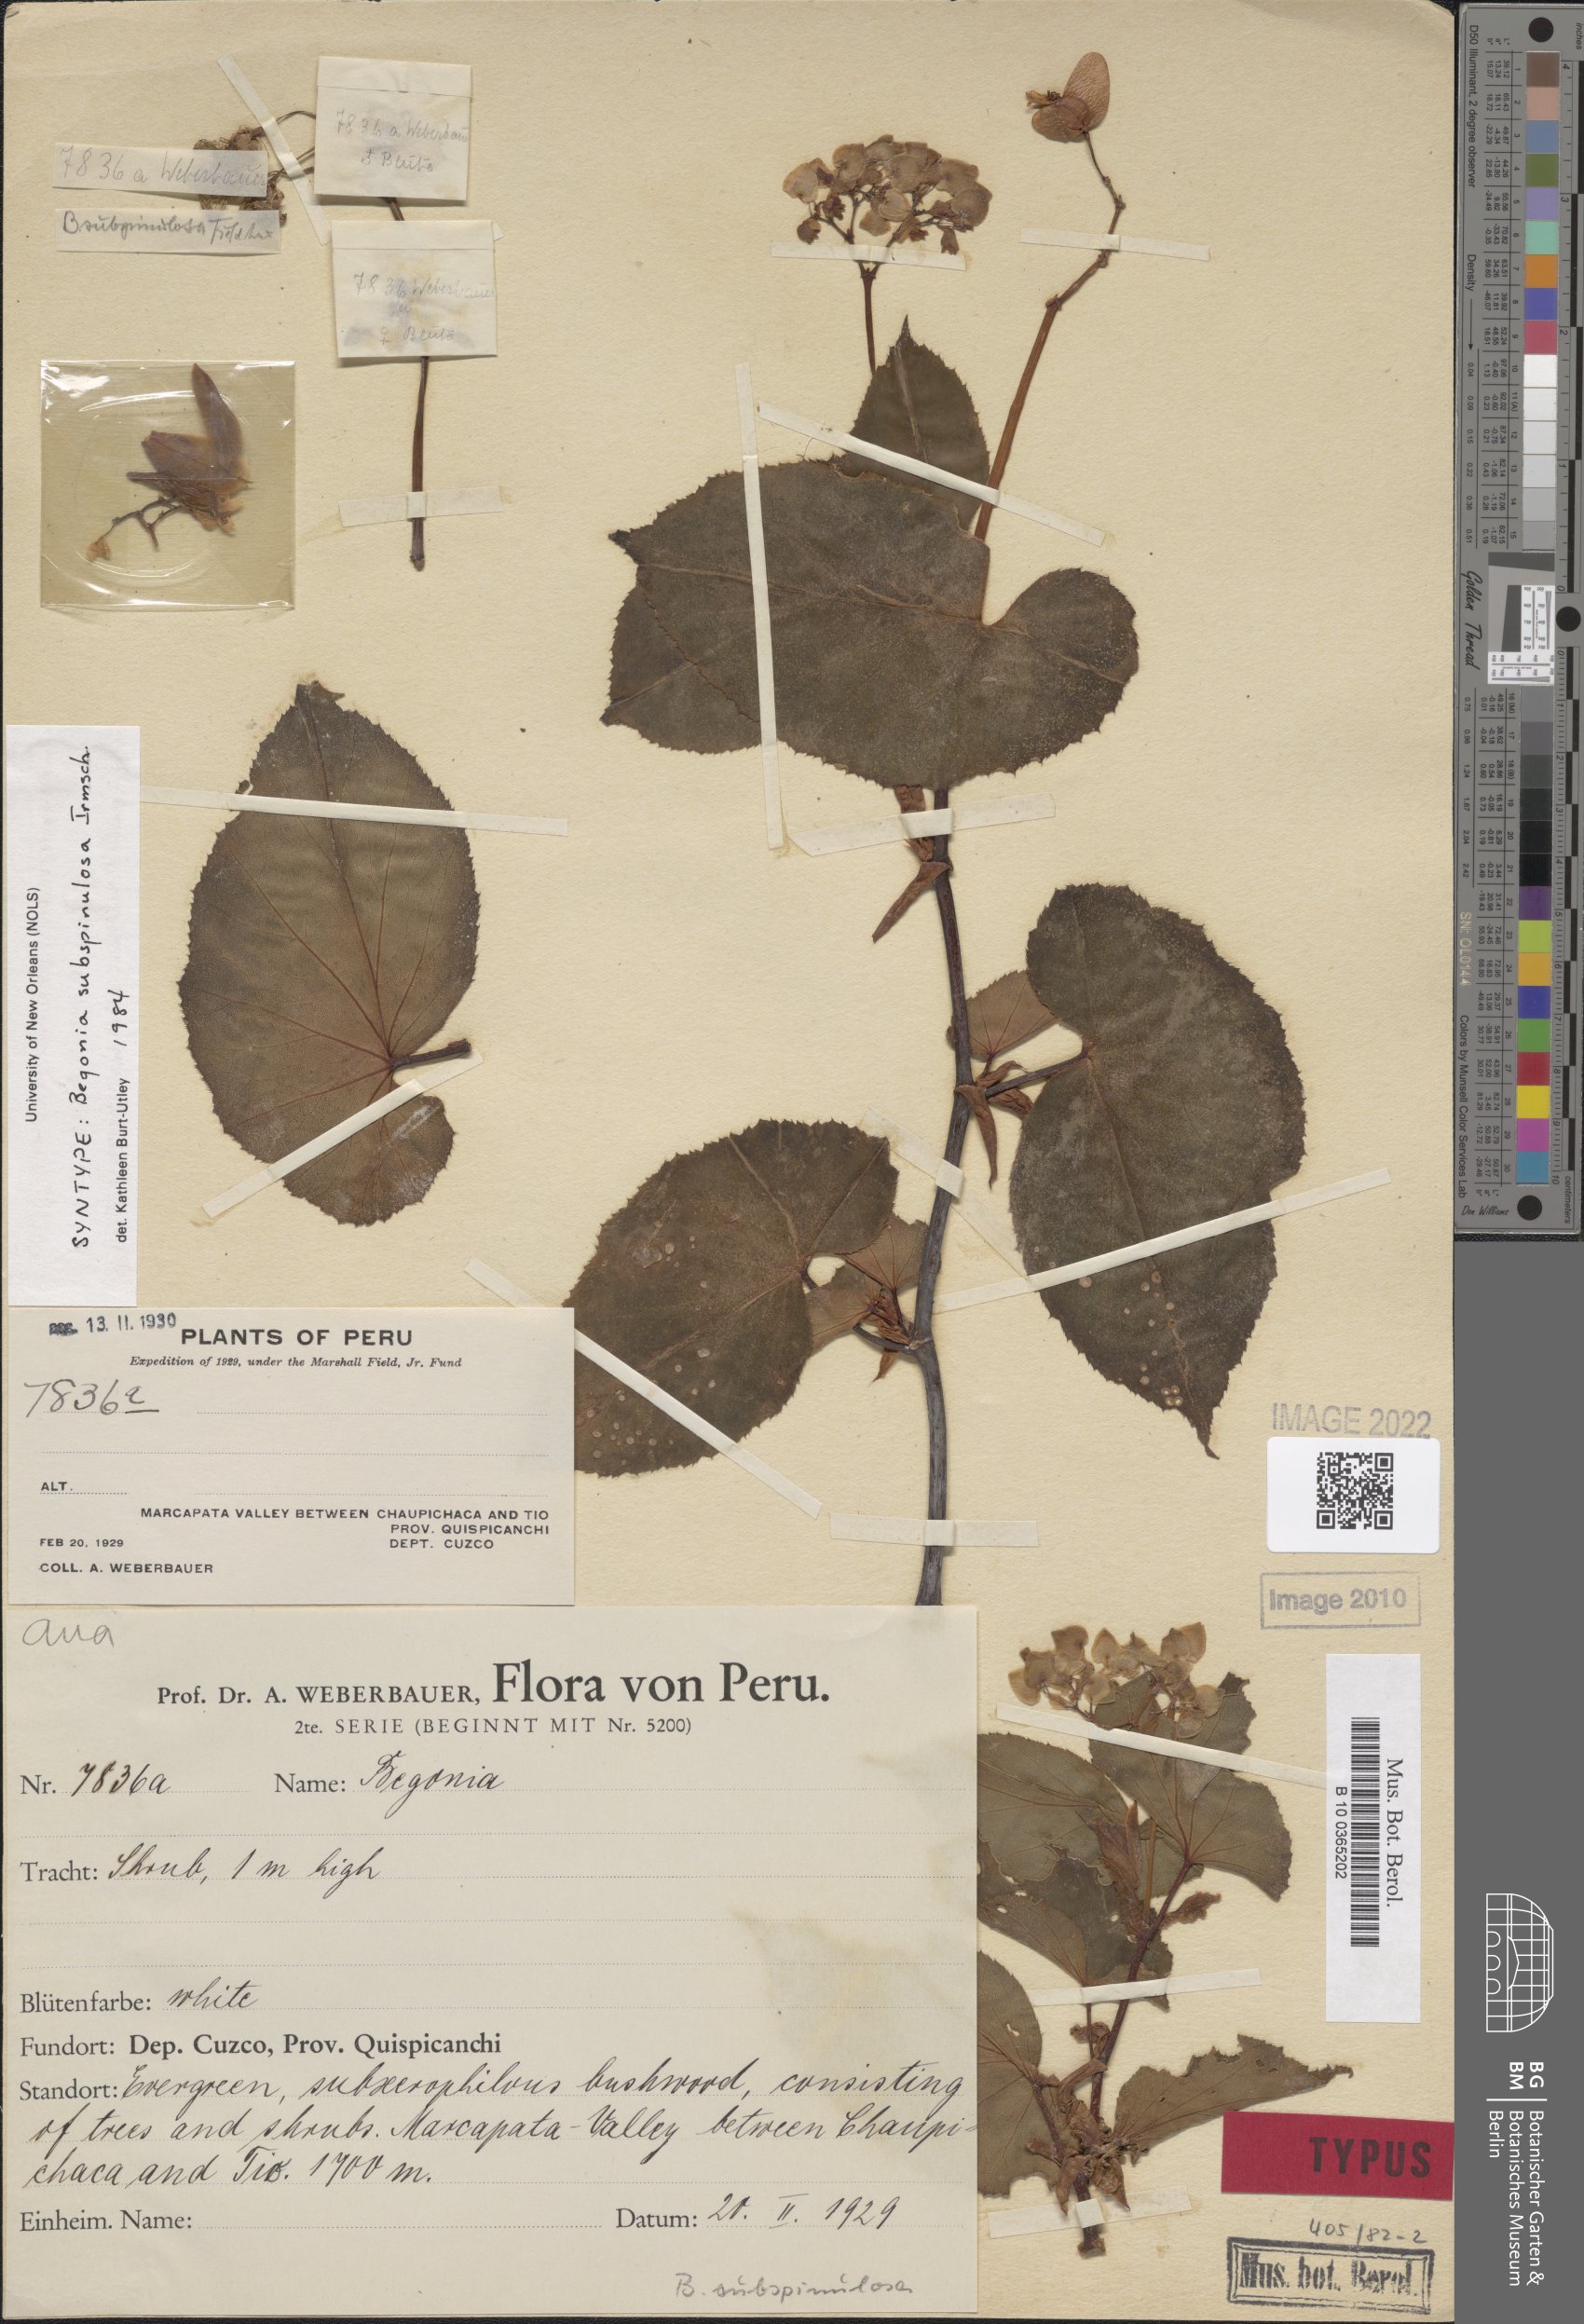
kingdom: Plantae
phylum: Tracheophyta
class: Magnoliopsida
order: Cucurbitales
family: Begoniaceae
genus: Begonia
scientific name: Begonia subspinulosa
